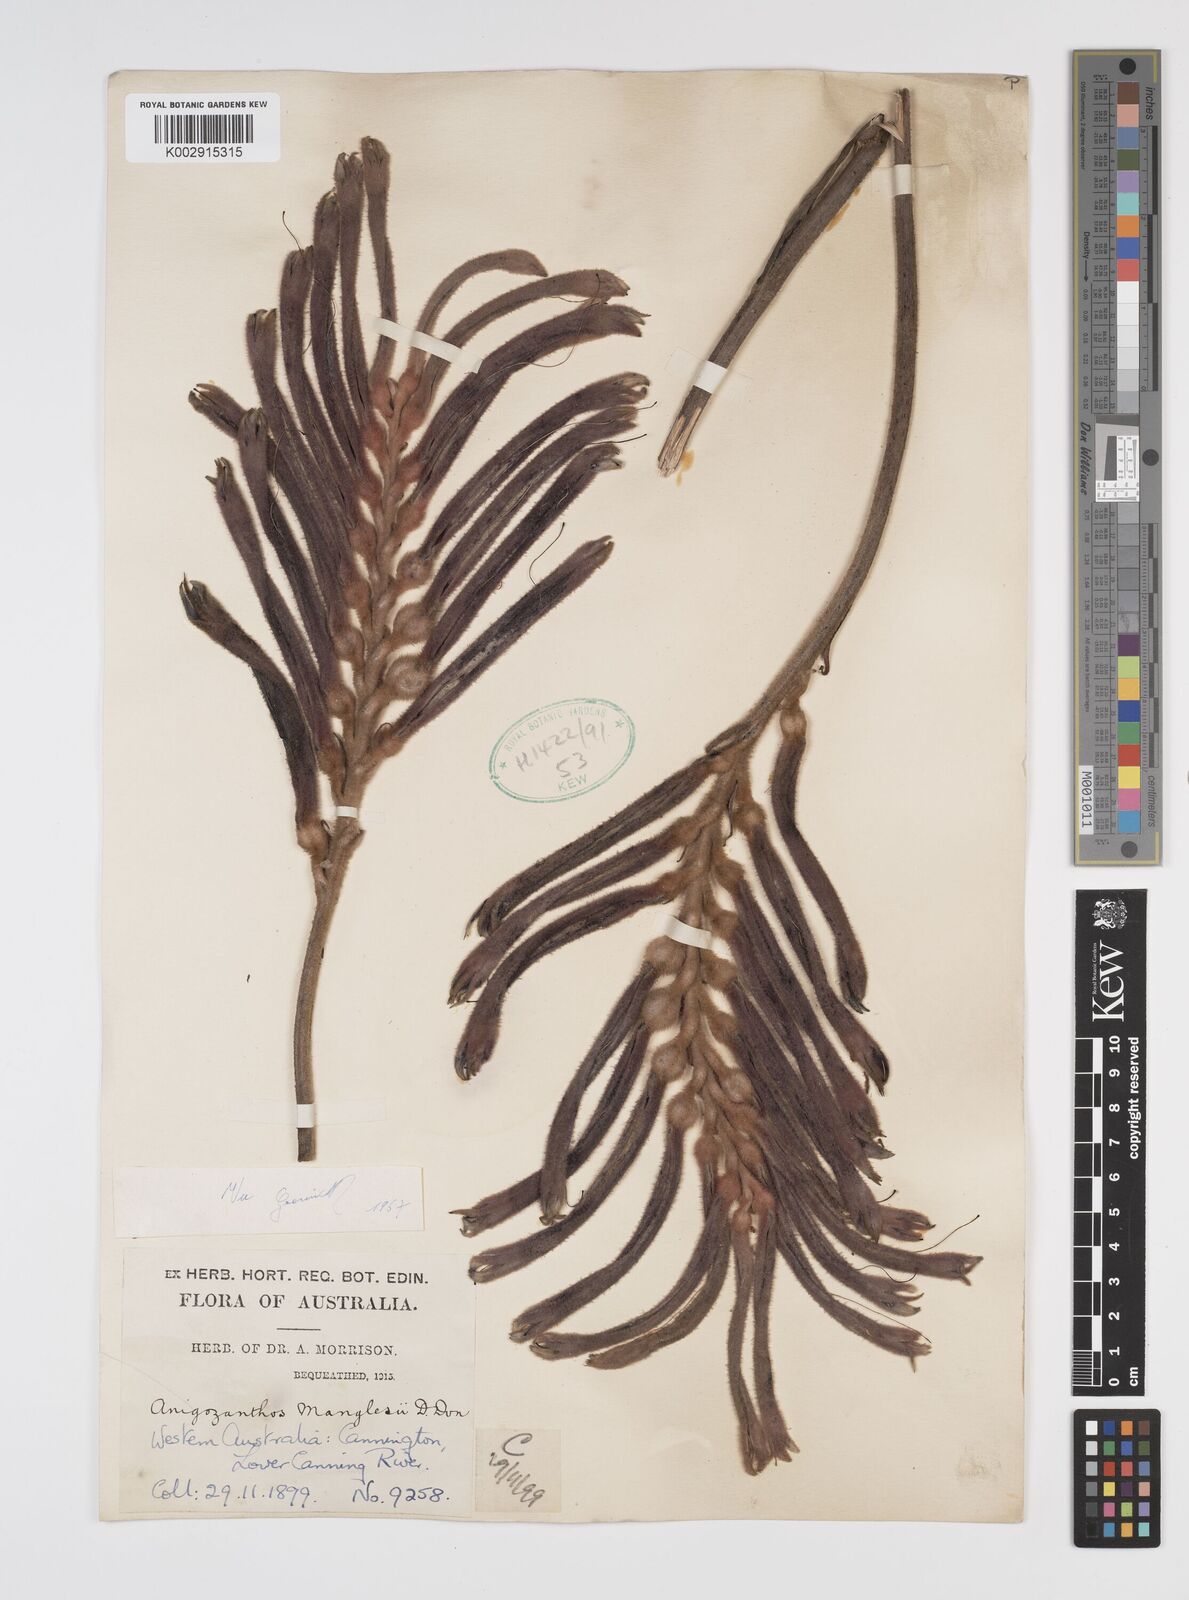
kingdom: Plantae
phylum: Tracheophyta
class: Liliopsida
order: Commelinales
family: Haemodoraceae
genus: Anigozanthos
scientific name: Anigozanthos manglesii
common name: Mangles's kangaroo-paw
